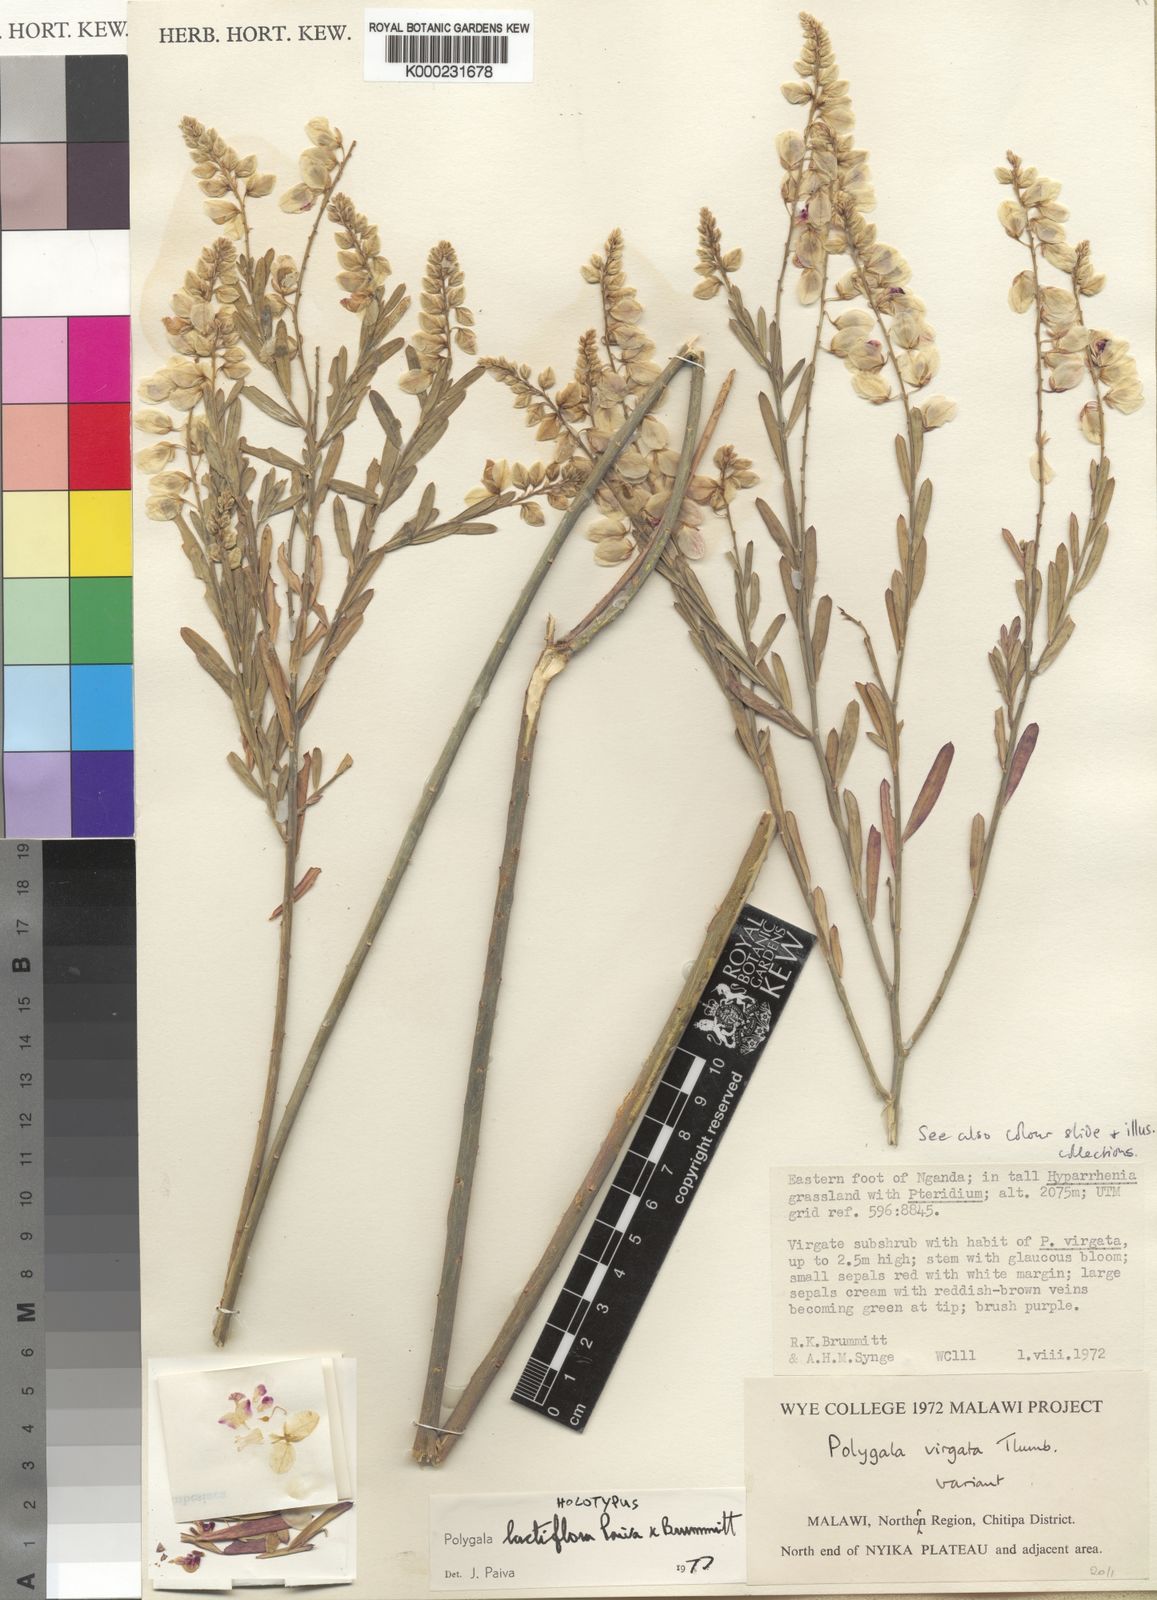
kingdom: Plantae
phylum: Tracheophyta
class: Magnoliopsida
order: Fabales
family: Polygalaceae
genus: Polygala
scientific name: Polygala lactiflora
